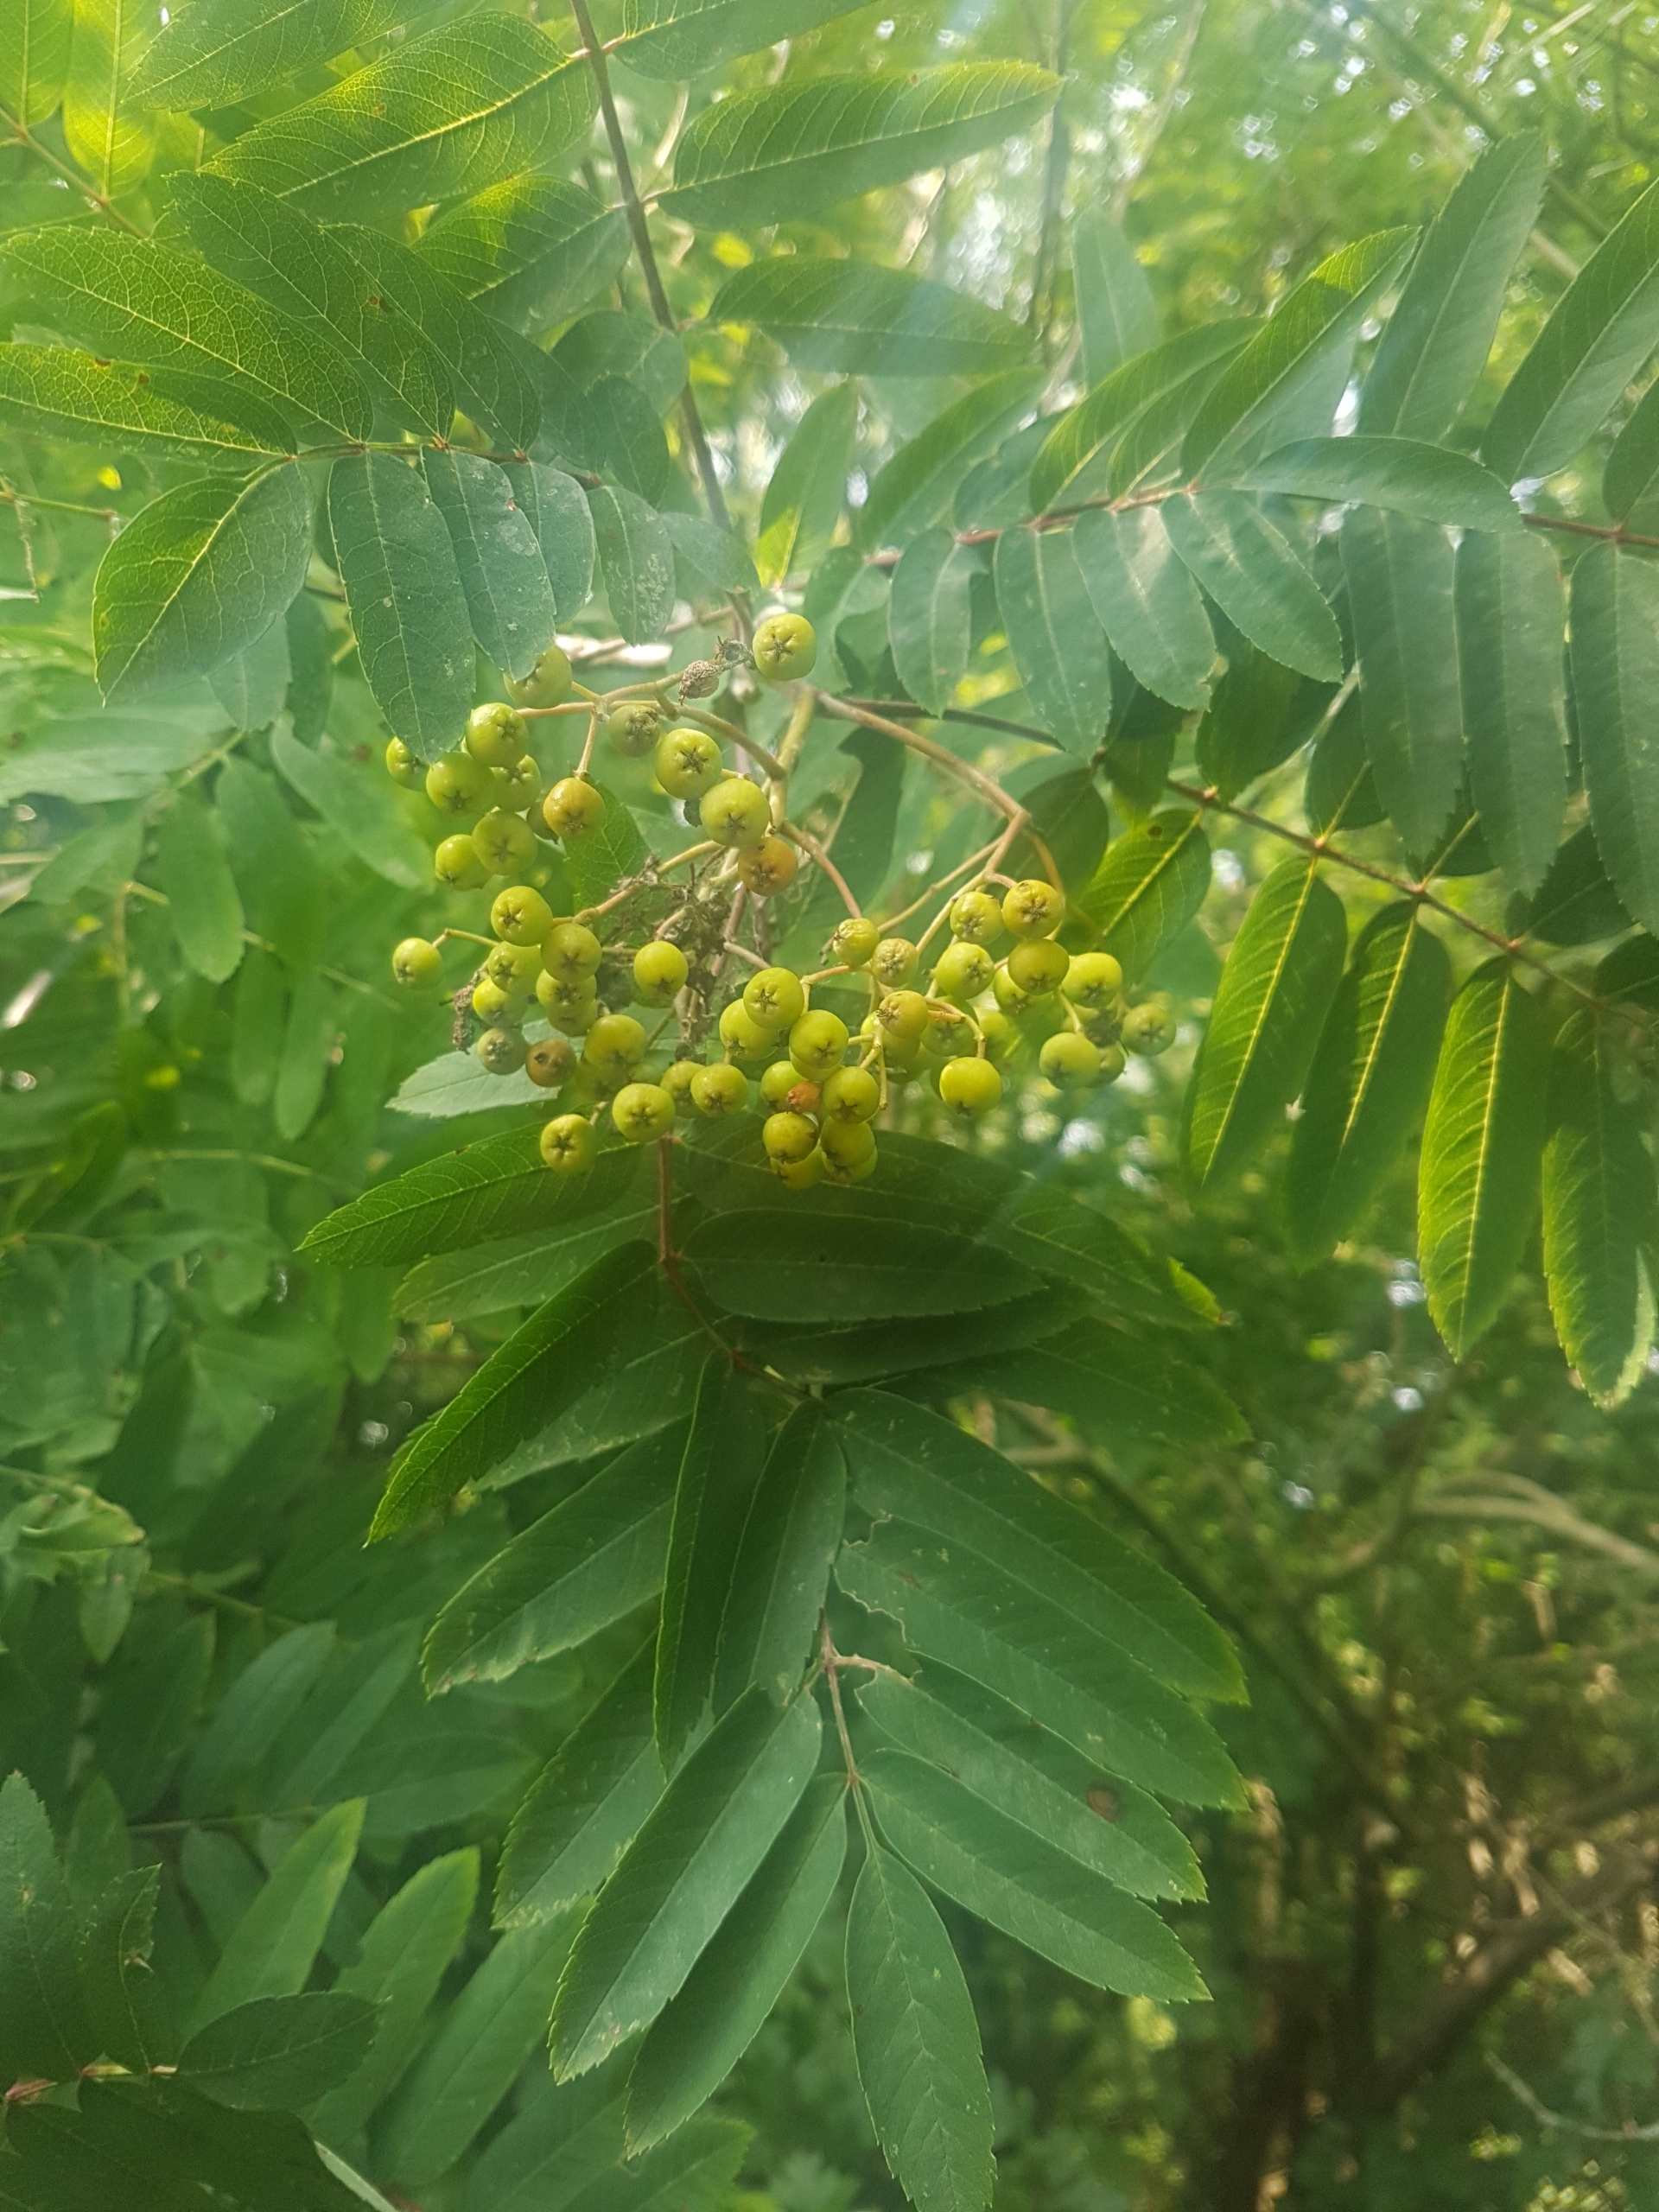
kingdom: Plantae
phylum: Tracheophyta
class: Magnoliopsida
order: Rosales
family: Rosaceae
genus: Sorbus
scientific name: Sorbus aucuparia
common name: Almindelig røn
